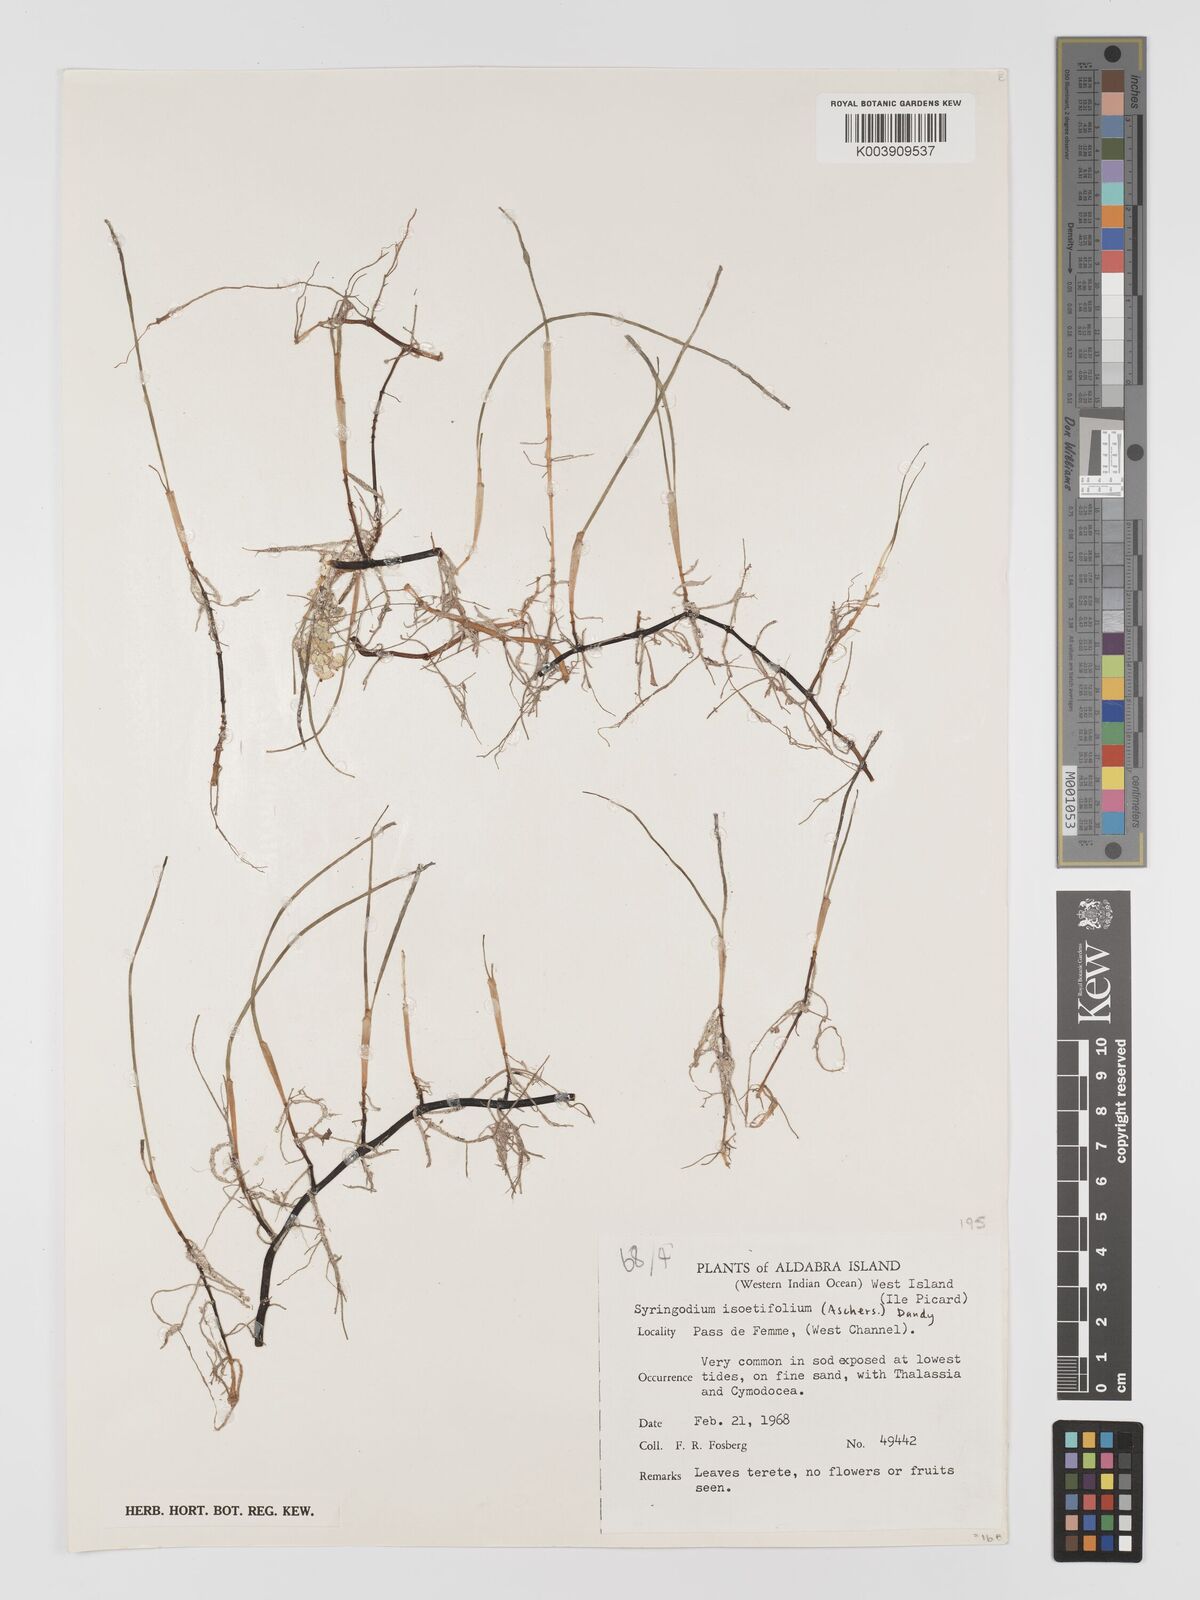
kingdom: Plantae
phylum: Tracheophyta
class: Liliopsida
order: Alismatales
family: Cymodoceaceae
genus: Syringodium
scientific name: Syringodium isoetifolium
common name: Species code: si
